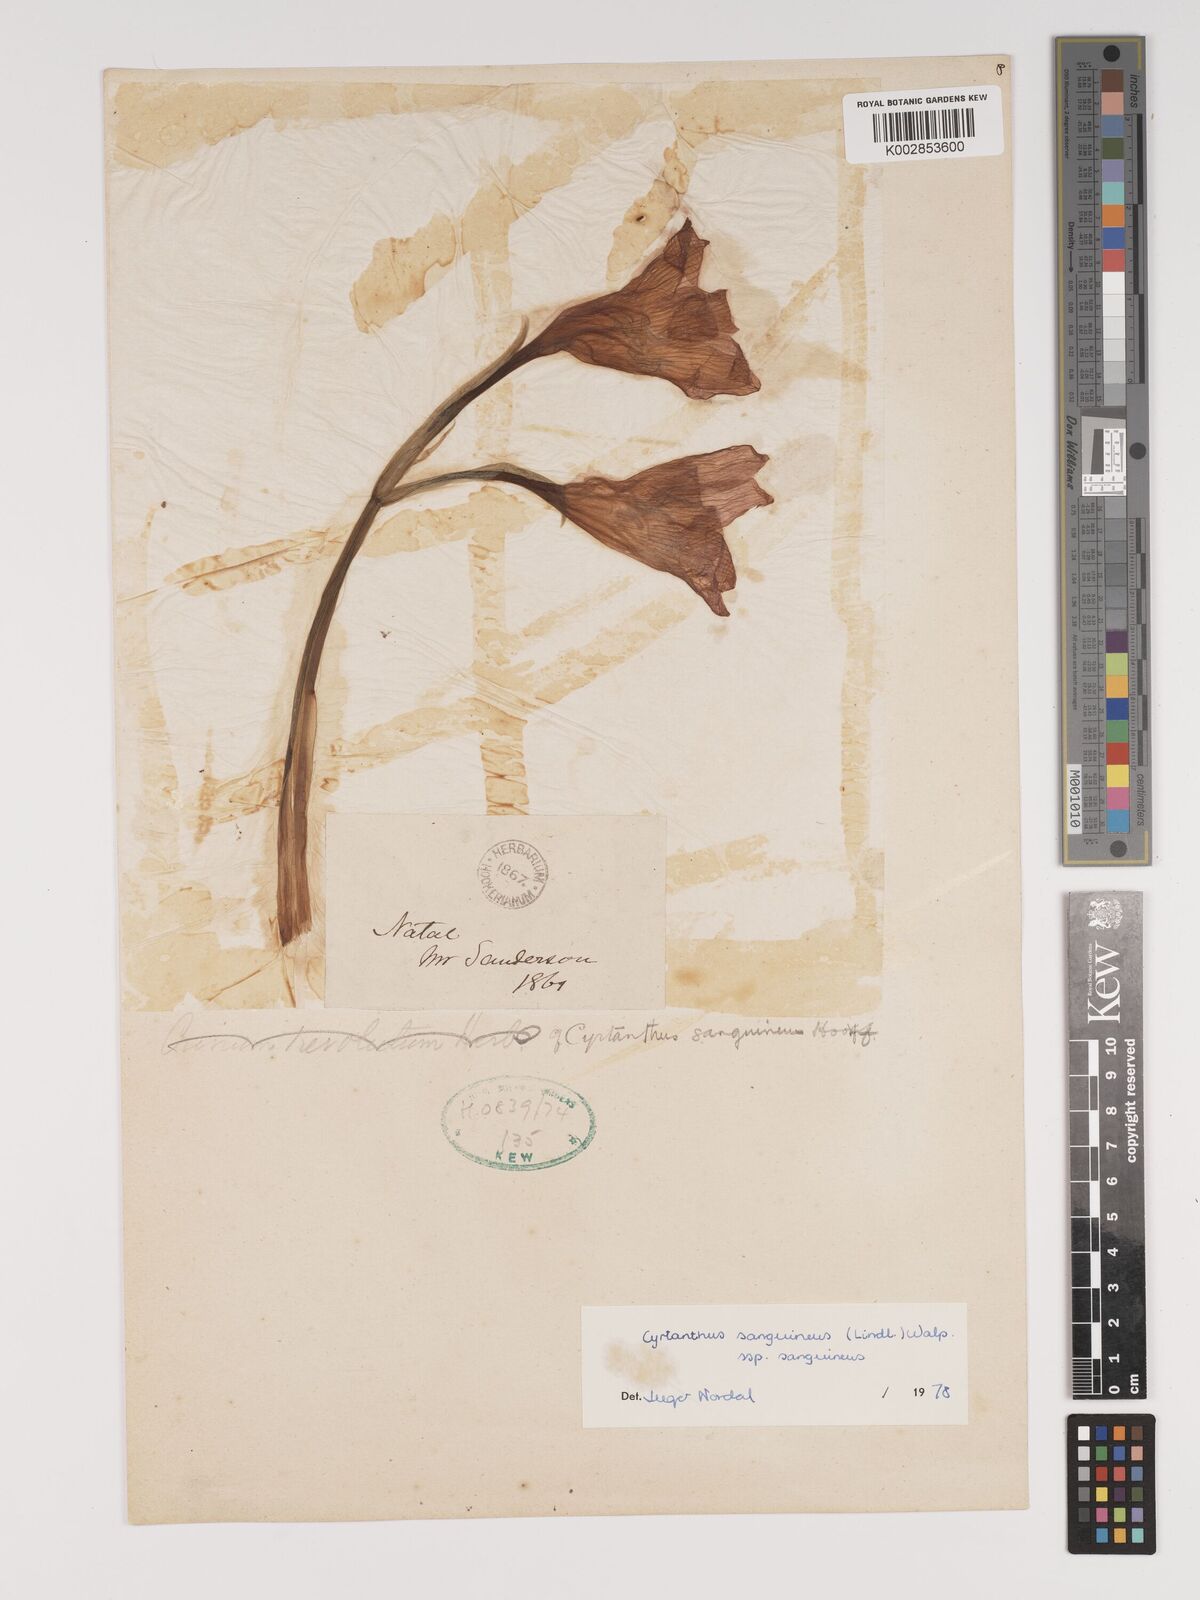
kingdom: Plantae
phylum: Tracheophyta
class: Liliopsida
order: Asparagales
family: Amaryllidaceae
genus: Cyrtanthus
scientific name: Cyrtanthus sanguineus
